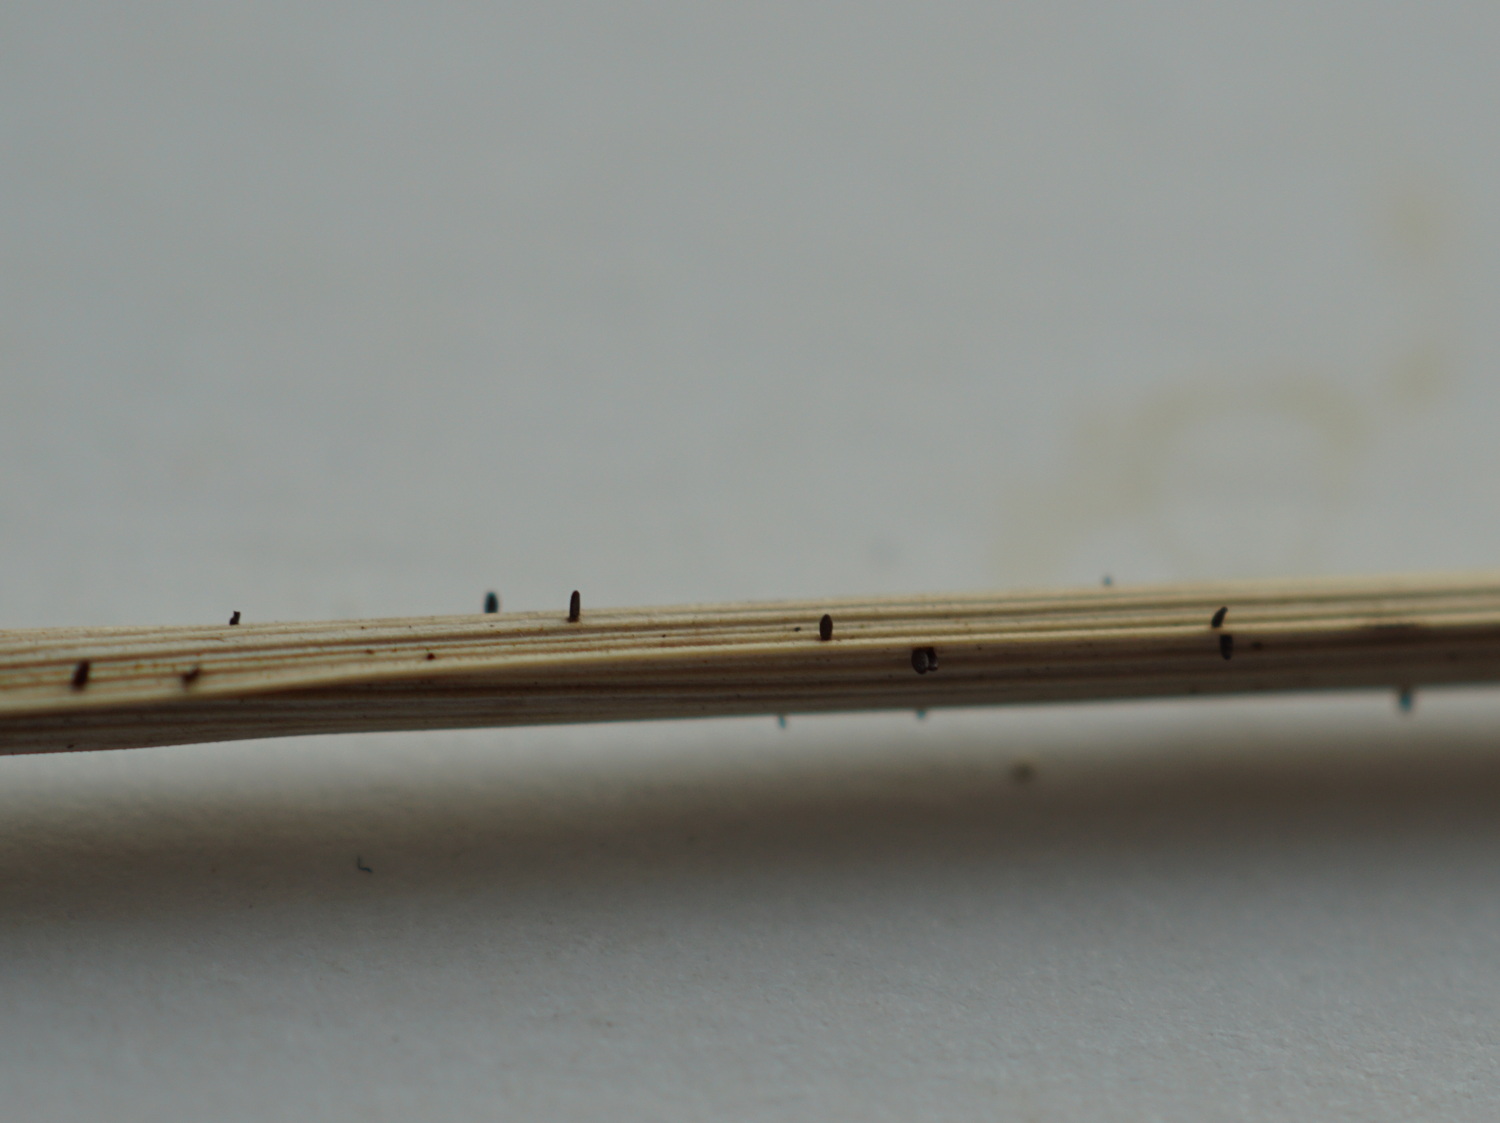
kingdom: Fungi
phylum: Ascomycota
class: Dothideomycetes
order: Acrospermales
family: Acrospermaceae
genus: Acrospermum
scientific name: Acrospermum graminum
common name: græs-stængeltunge
